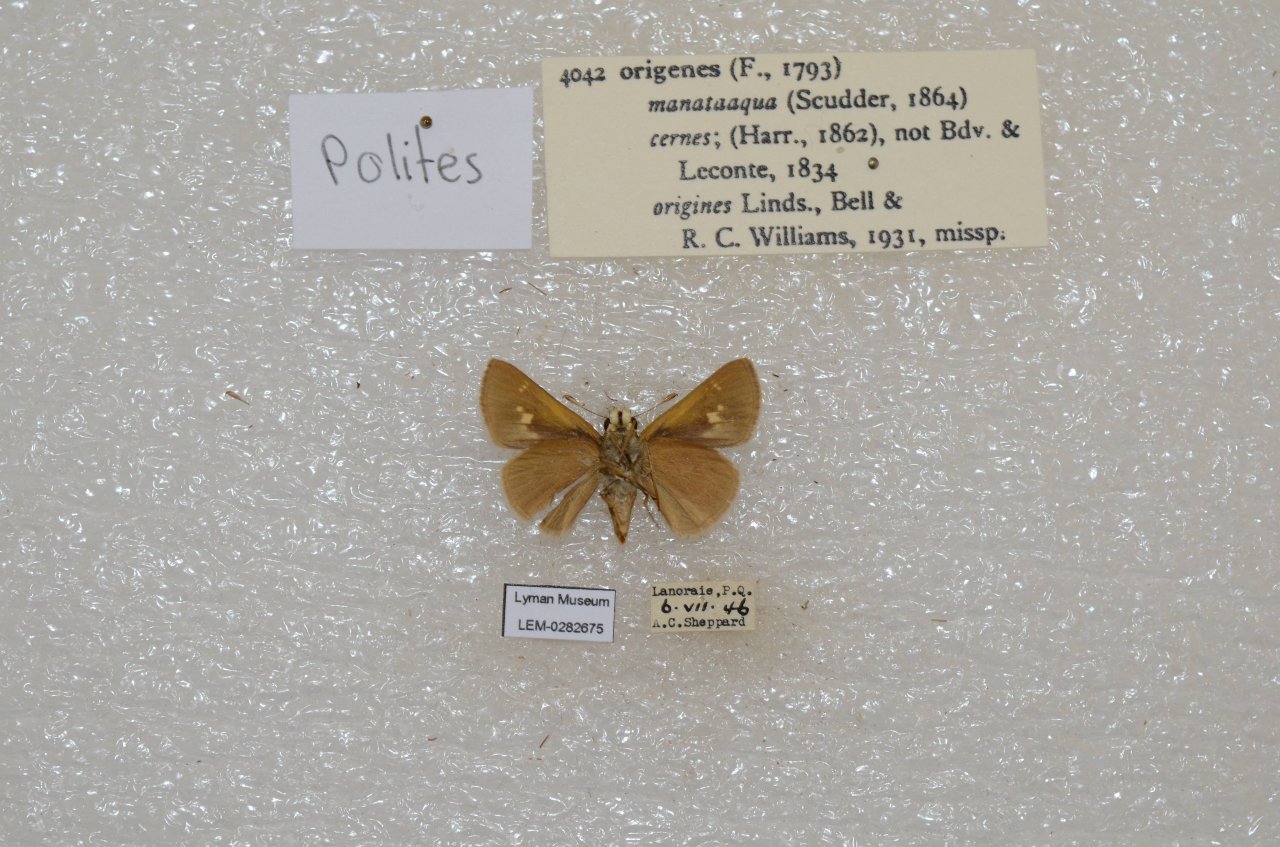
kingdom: Animalia
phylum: Arthropoda
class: Insecta
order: Lepidoptera
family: Hesperiidae
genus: Polites
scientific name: Polites
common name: Crossline Skipper
